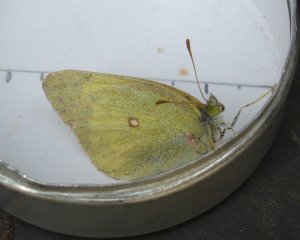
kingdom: Animalia
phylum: Arthropoda
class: Insecta
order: Lepidoptera
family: Pieridae
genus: Colias
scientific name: Colias interior
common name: Pink-edged Sulphur
